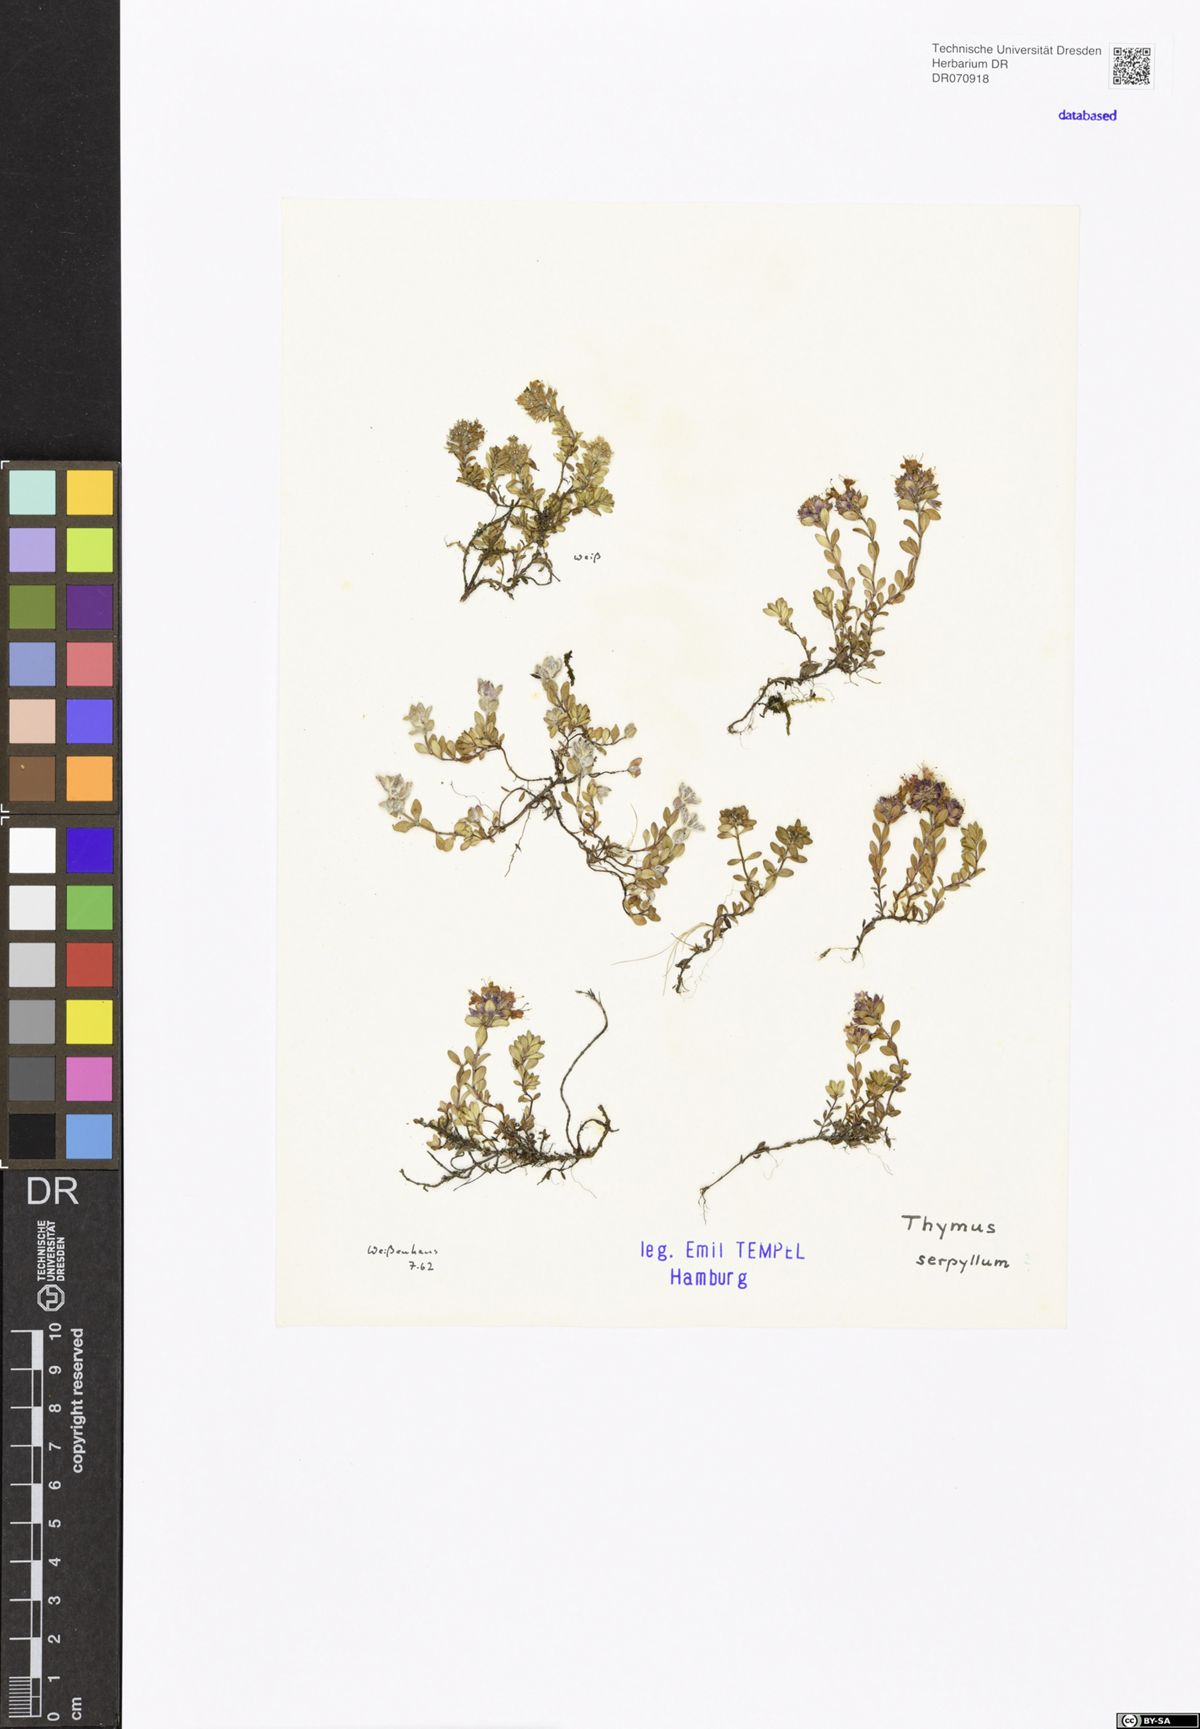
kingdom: Plantae
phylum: Tracheophyta
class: Magnoliopsida
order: Lamiales
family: Lamiaceae
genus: Thymus
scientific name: Thymus serpyllum
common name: Breckland thyme
